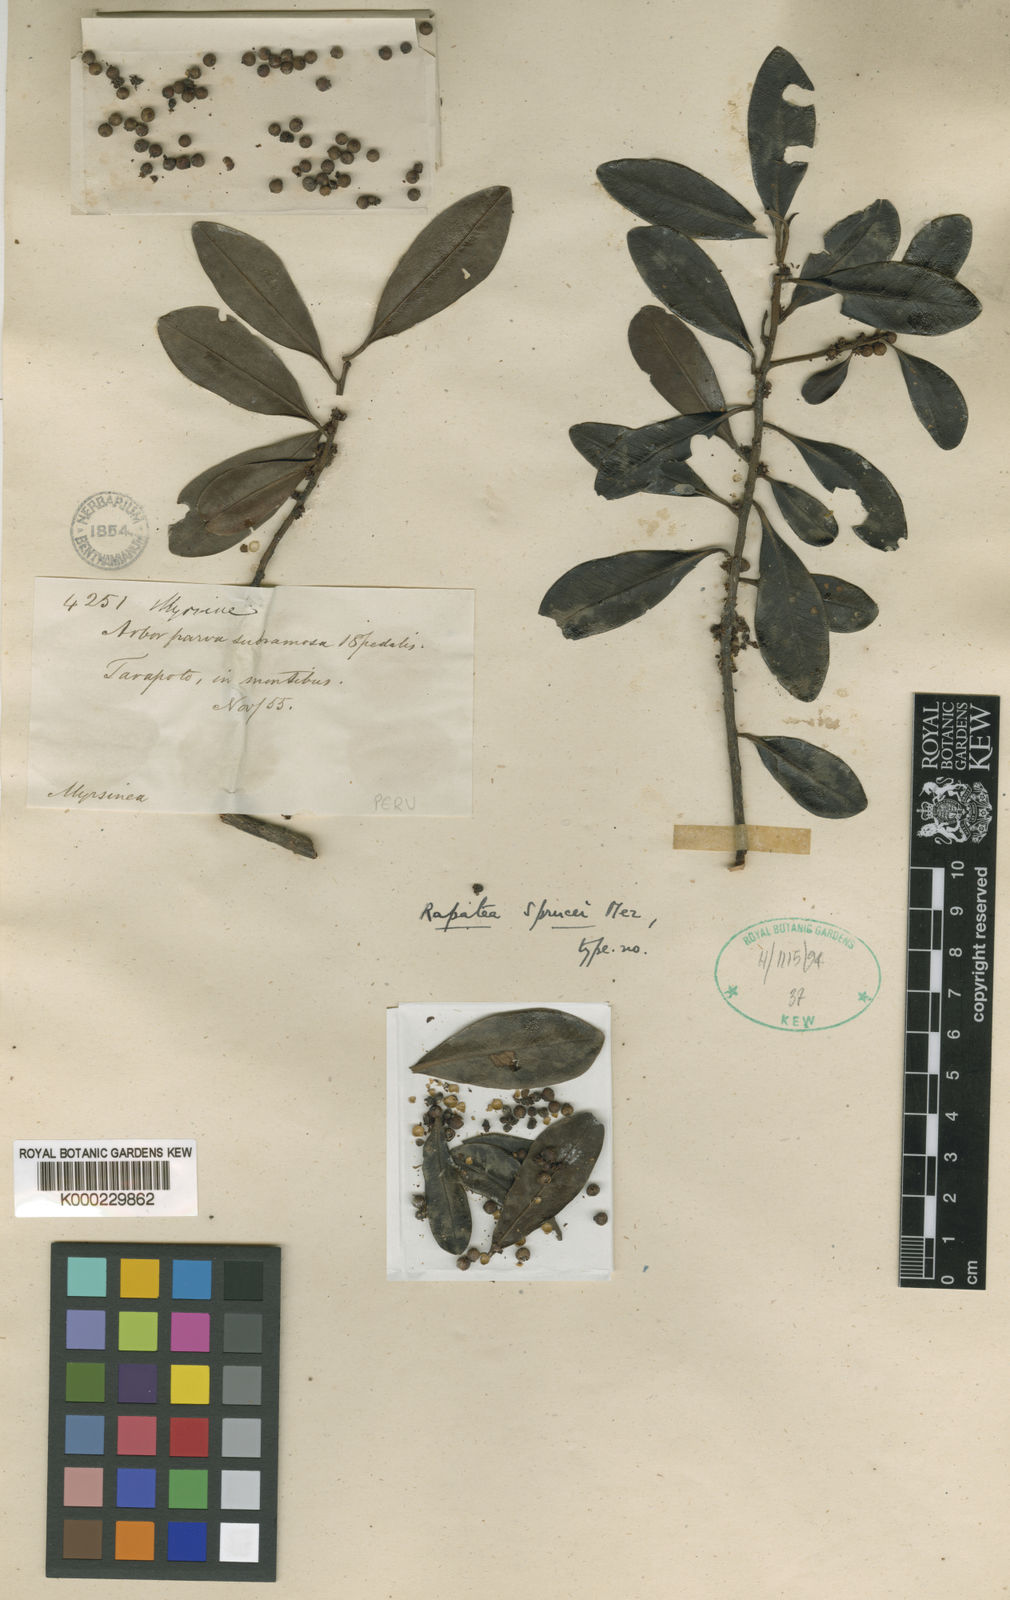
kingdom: Plantae
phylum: Tracheophyta
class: Magnoliopsida
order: Ericales
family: Primulaceae
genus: Myrsine
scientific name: Myrsine sprucei
